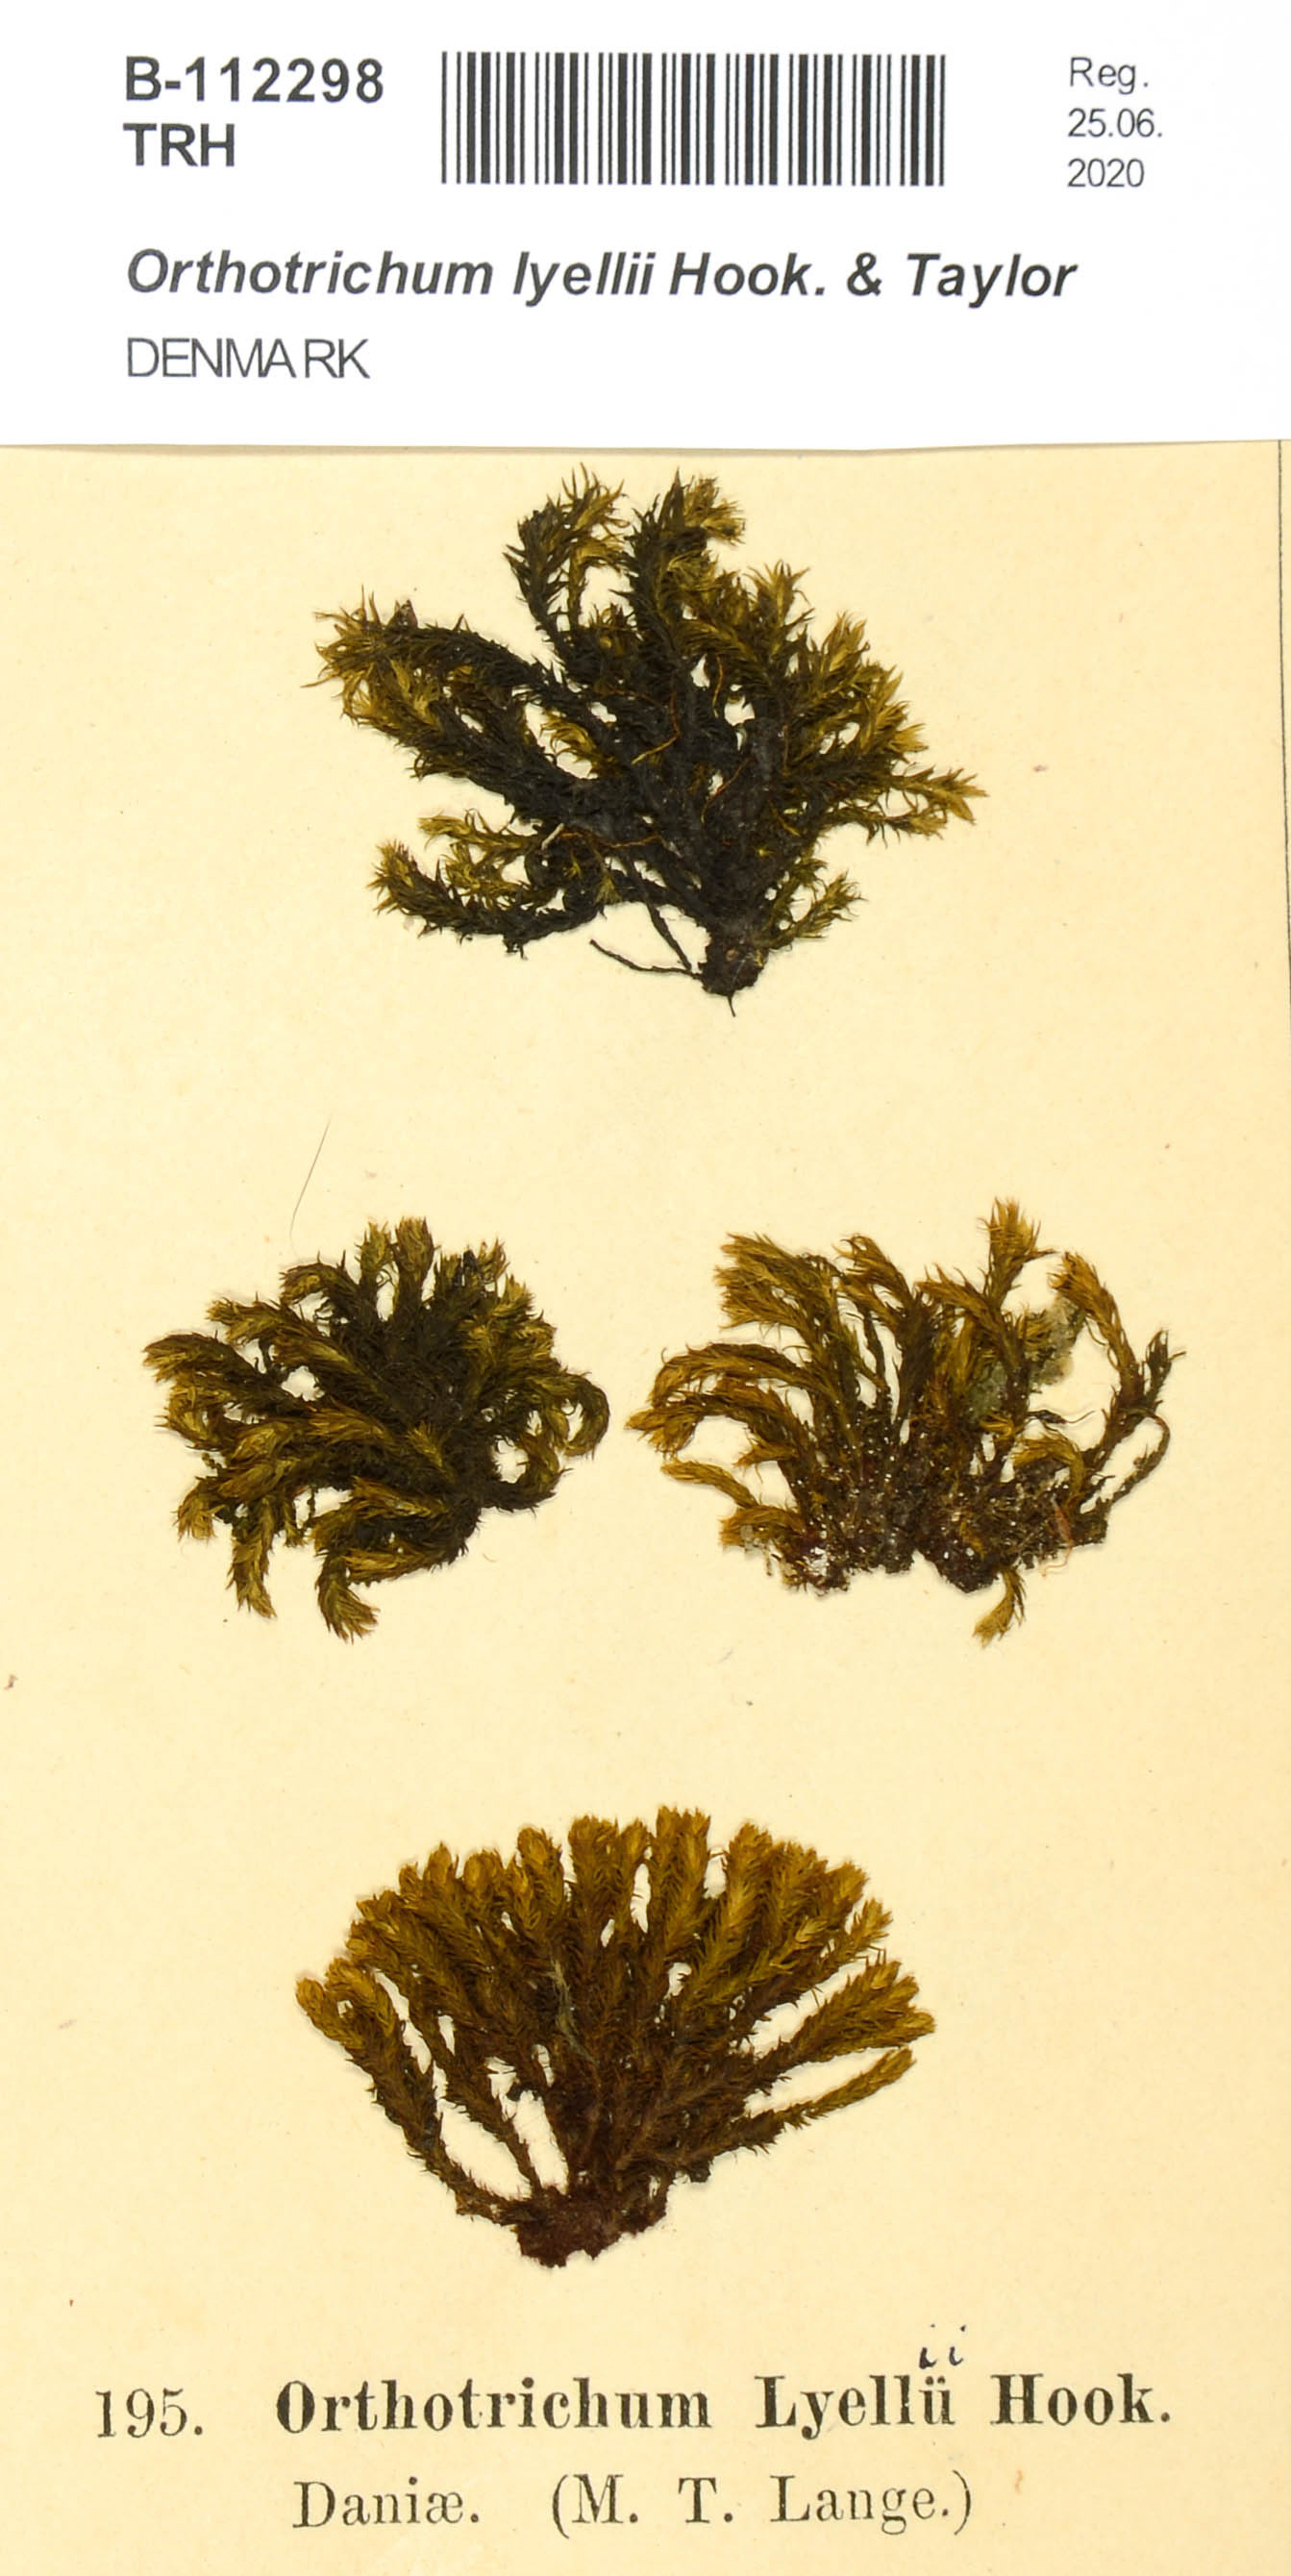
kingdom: Plantae
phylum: Bryophyta
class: Bryopsida
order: Orthotrichales
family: Orthotrichaceae
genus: Pulvigera
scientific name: Pulvigera lyellii
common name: Lyell's bristle-moss
